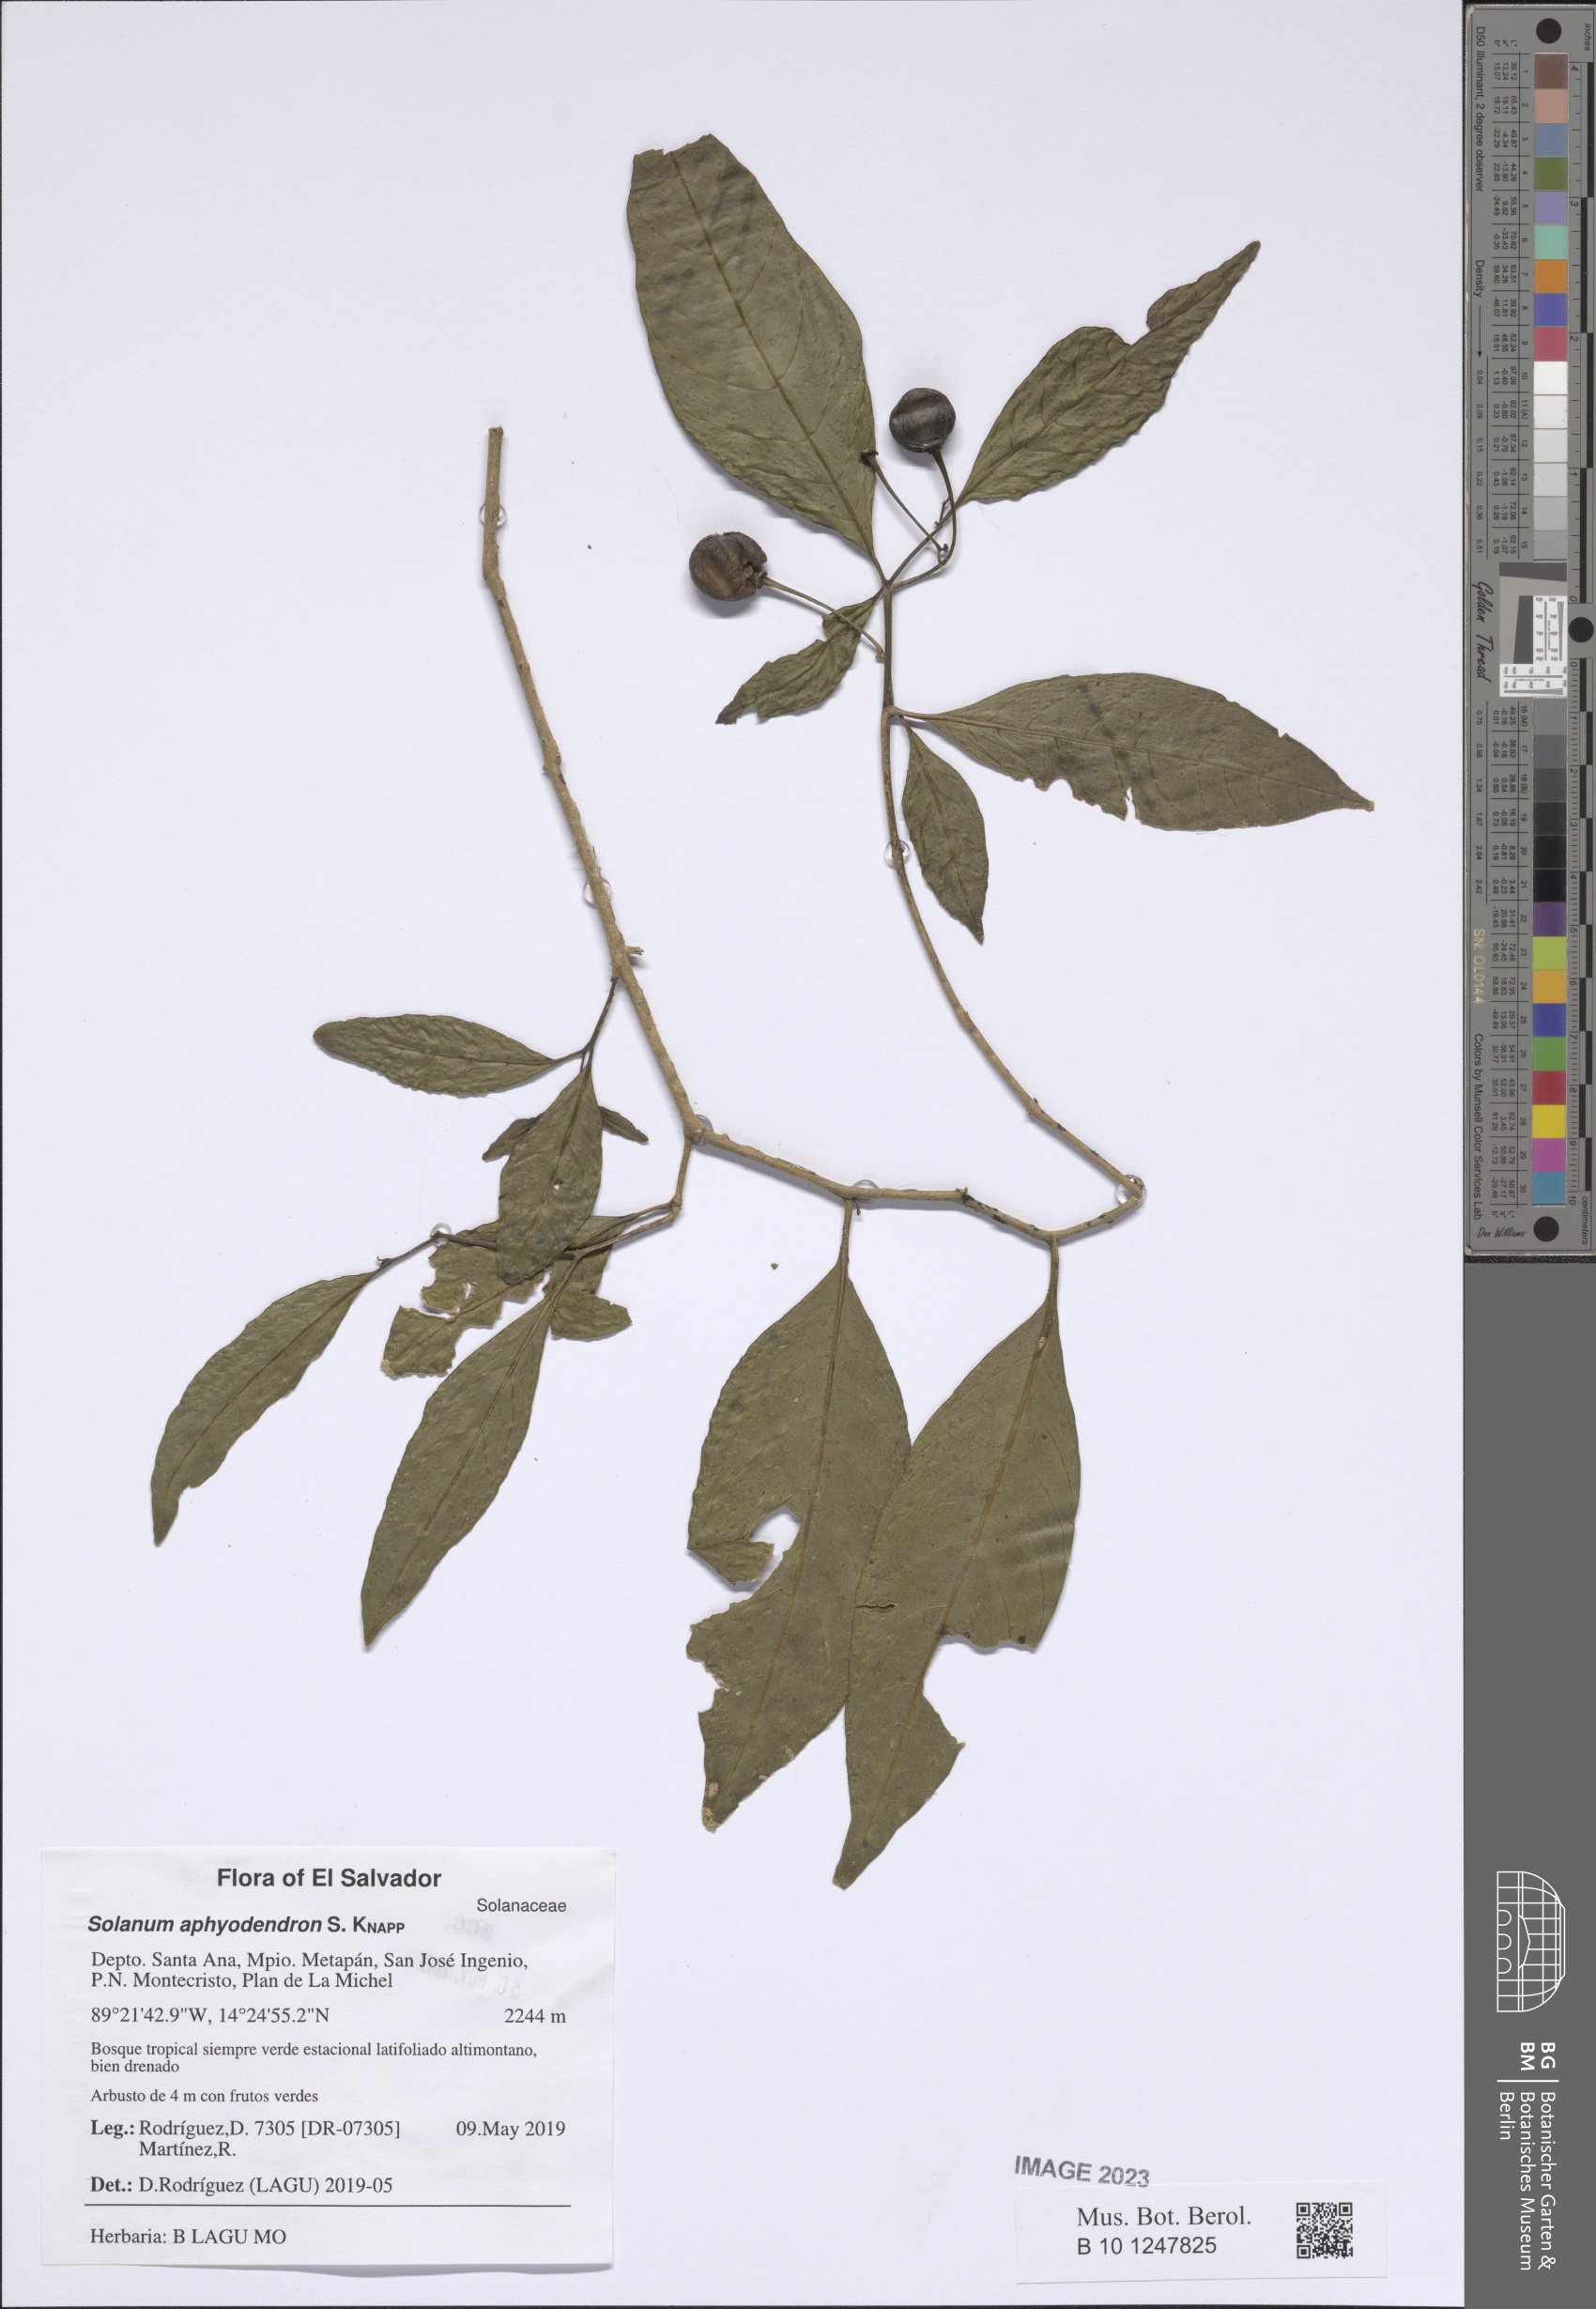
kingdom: Plantae
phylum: Tracheophyta
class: Magnoliopsida
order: Solanales
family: Solanaceae
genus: Solanum
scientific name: Solanum aphyodendron
